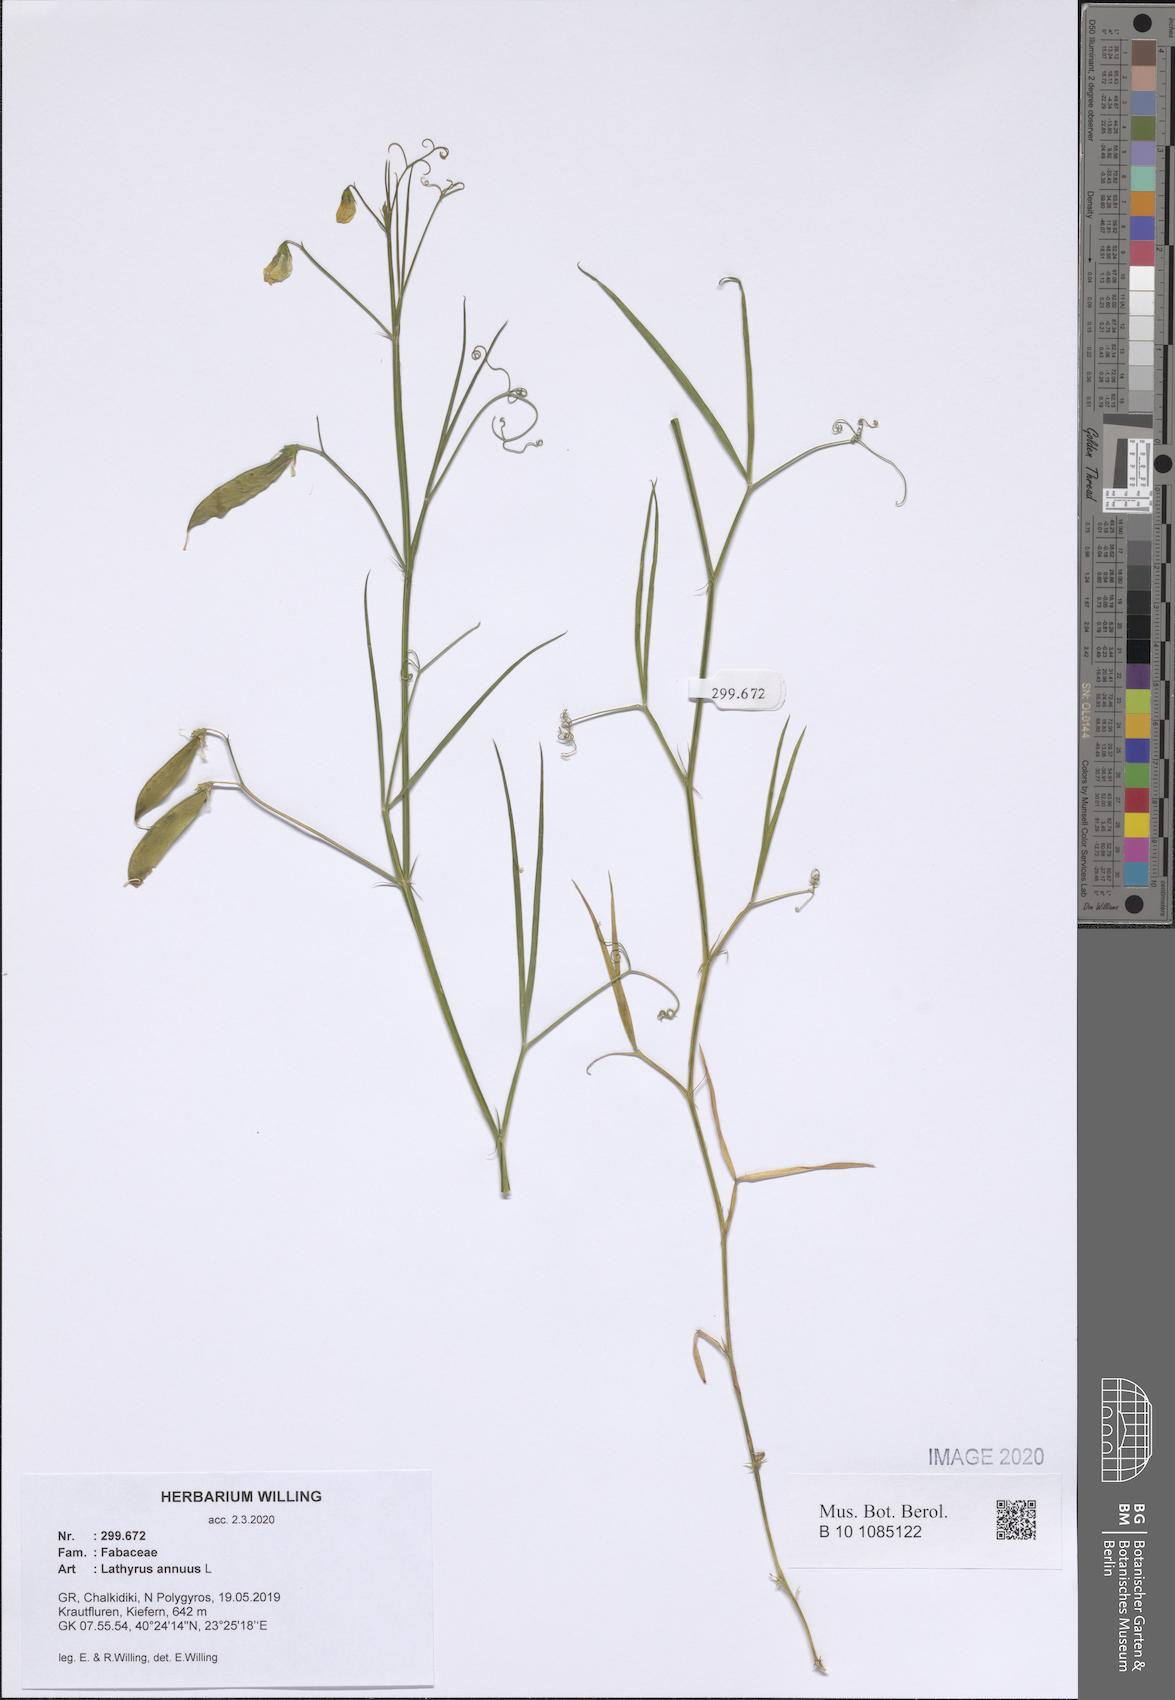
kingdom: Plantae
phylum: Tracheophyta
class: Magnoliopsida
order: Fabales
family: Fabaceae
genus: Lathyrus
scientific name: Lathyrus annuus
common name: Fodder pea
